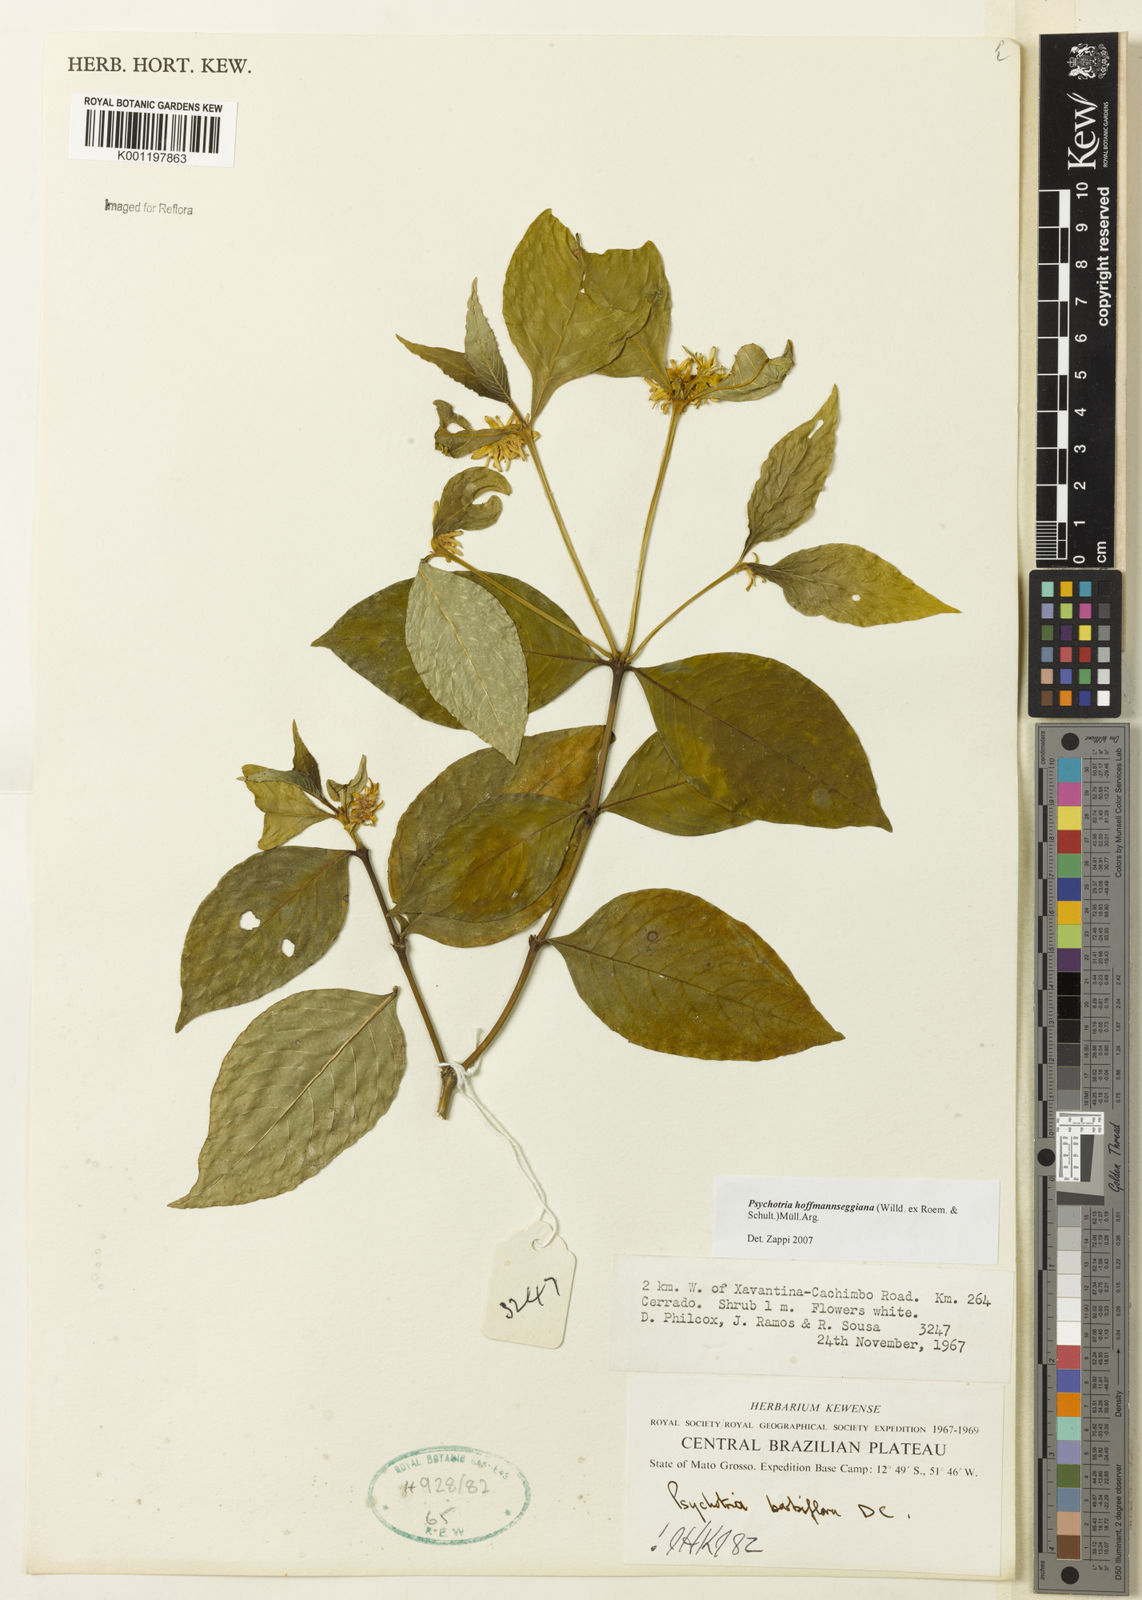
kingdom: Plantae
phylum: Tracheophyta
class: Magnoliopsida
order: Gentianales
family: Rubiaceae
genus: Psychotria
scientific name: Psychotria
